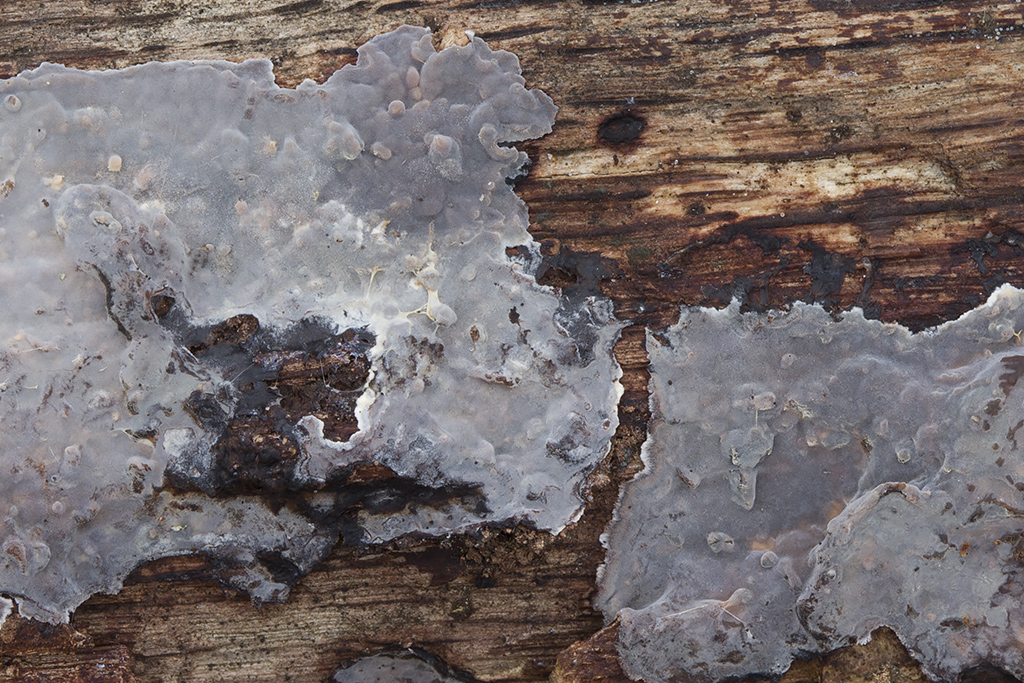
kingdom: Fungi
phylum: Basidiomycota
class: Agaricomycetes
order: Russulales
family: Peniophoraceae
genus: Peniophora
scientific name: Peniophora quercina
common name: ege-voksskind
